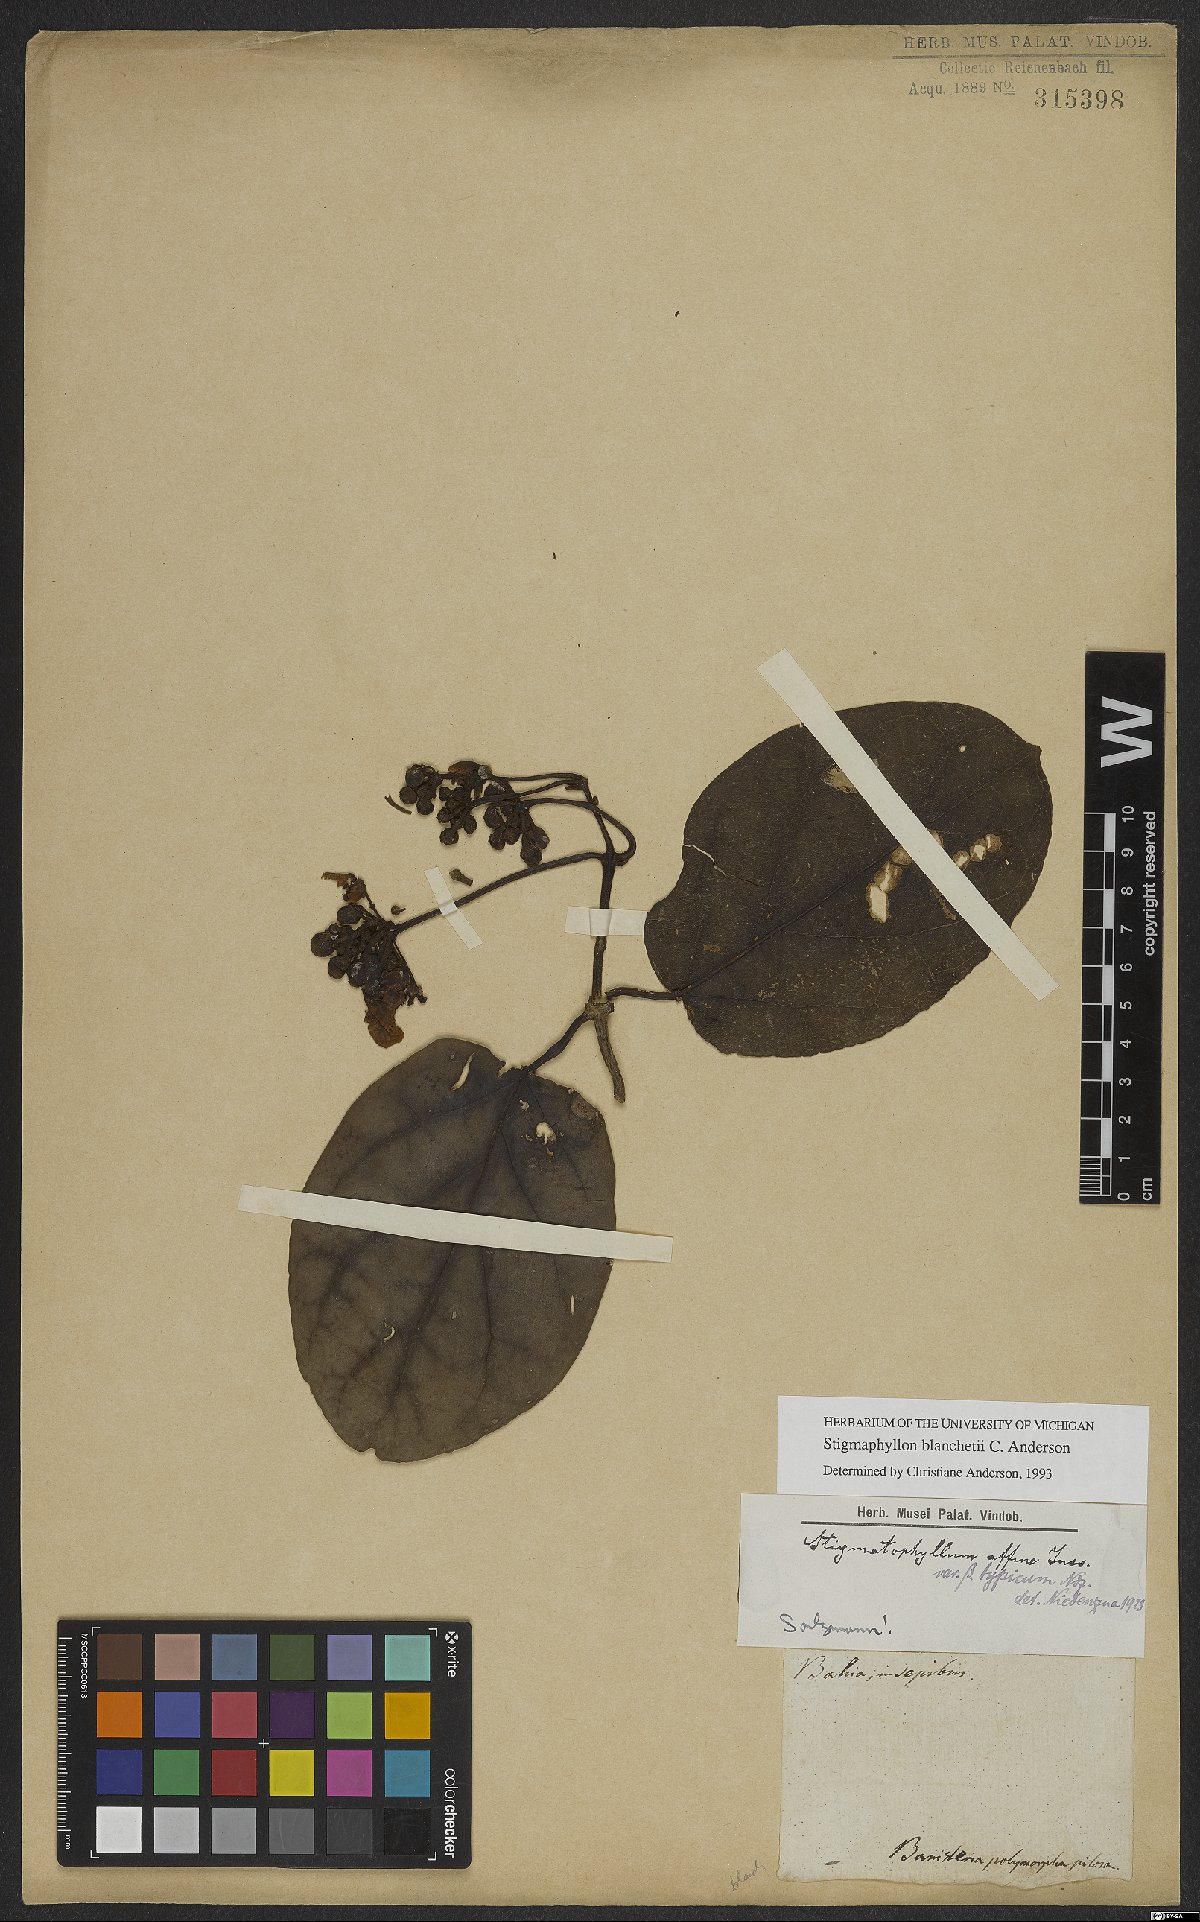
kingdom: Plantae
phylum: Tracheophyta
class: Magnoliopsida
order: Malpighiales
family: Malpighiaceae
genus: Stigmaphyllon
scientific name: Stigmaphyllon blanchetii
